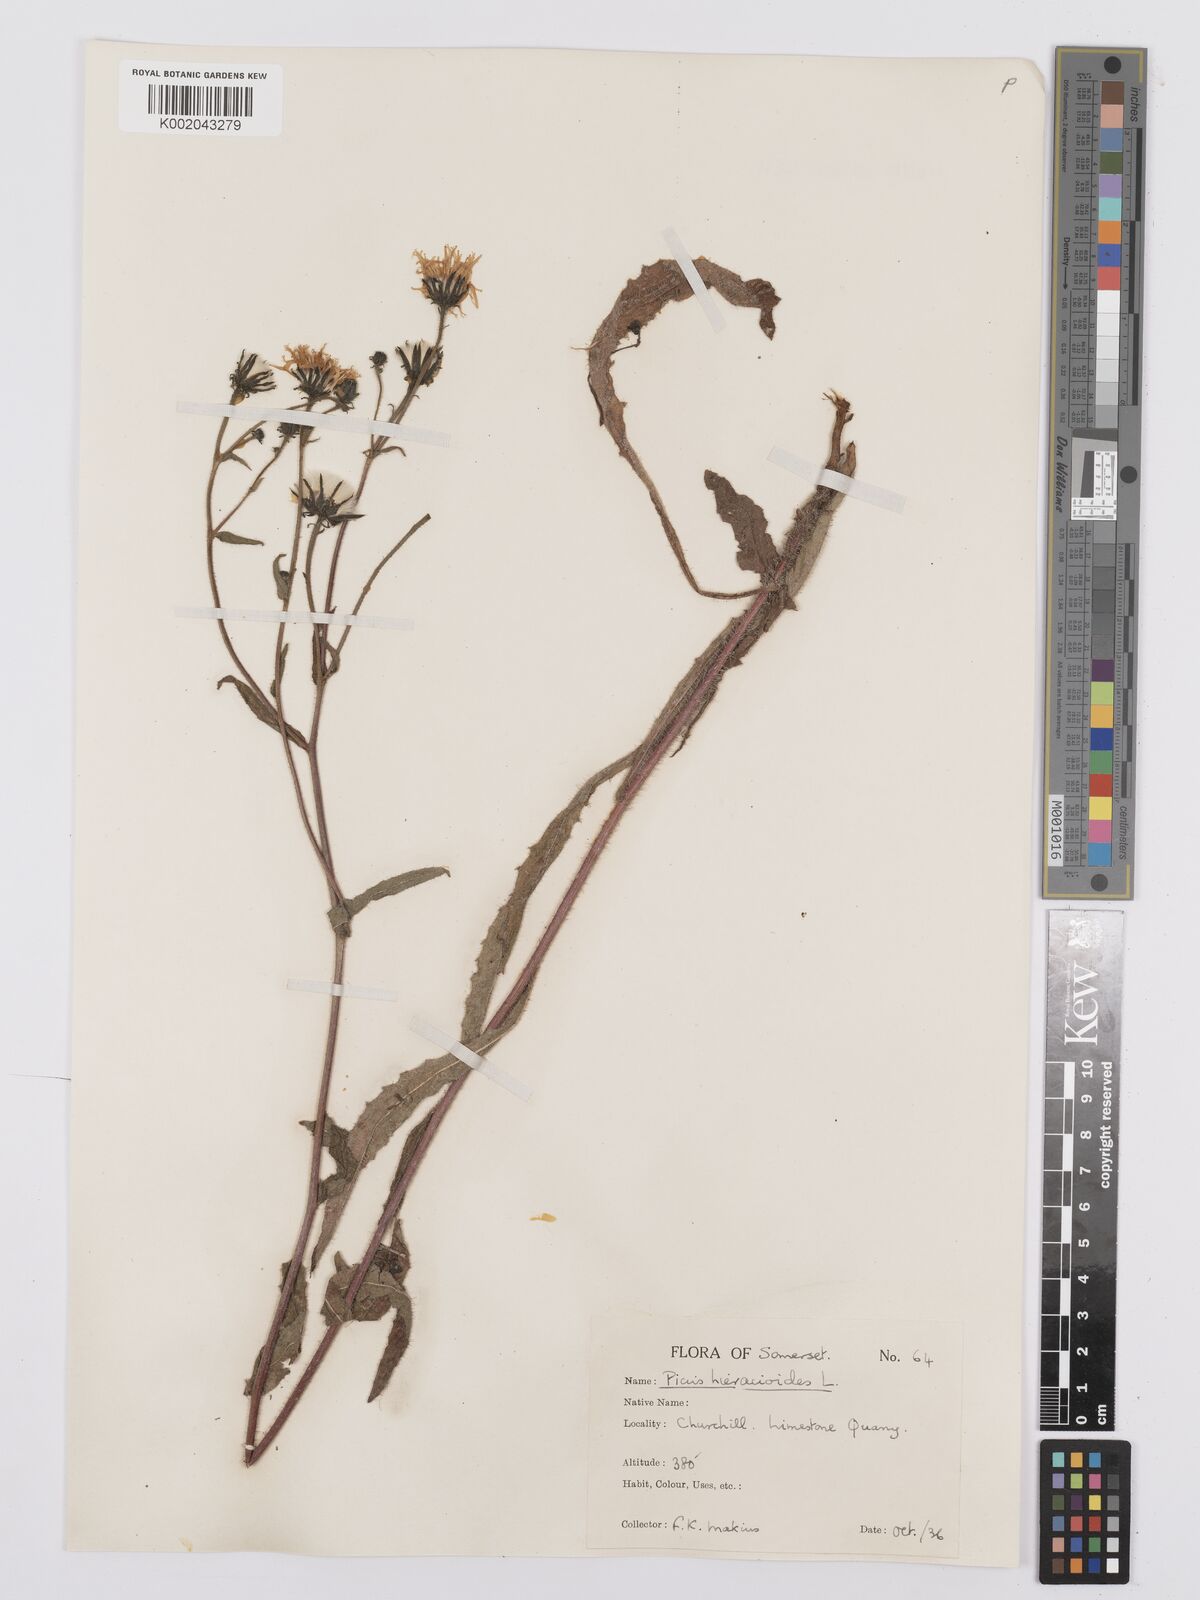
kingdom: Plantae
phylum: Tracheophyta
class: Magnoliopsida
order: Asterales
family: Asteraceae
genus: Picris
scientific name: Picris hieracioides
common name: Hawkweed oxtongue
